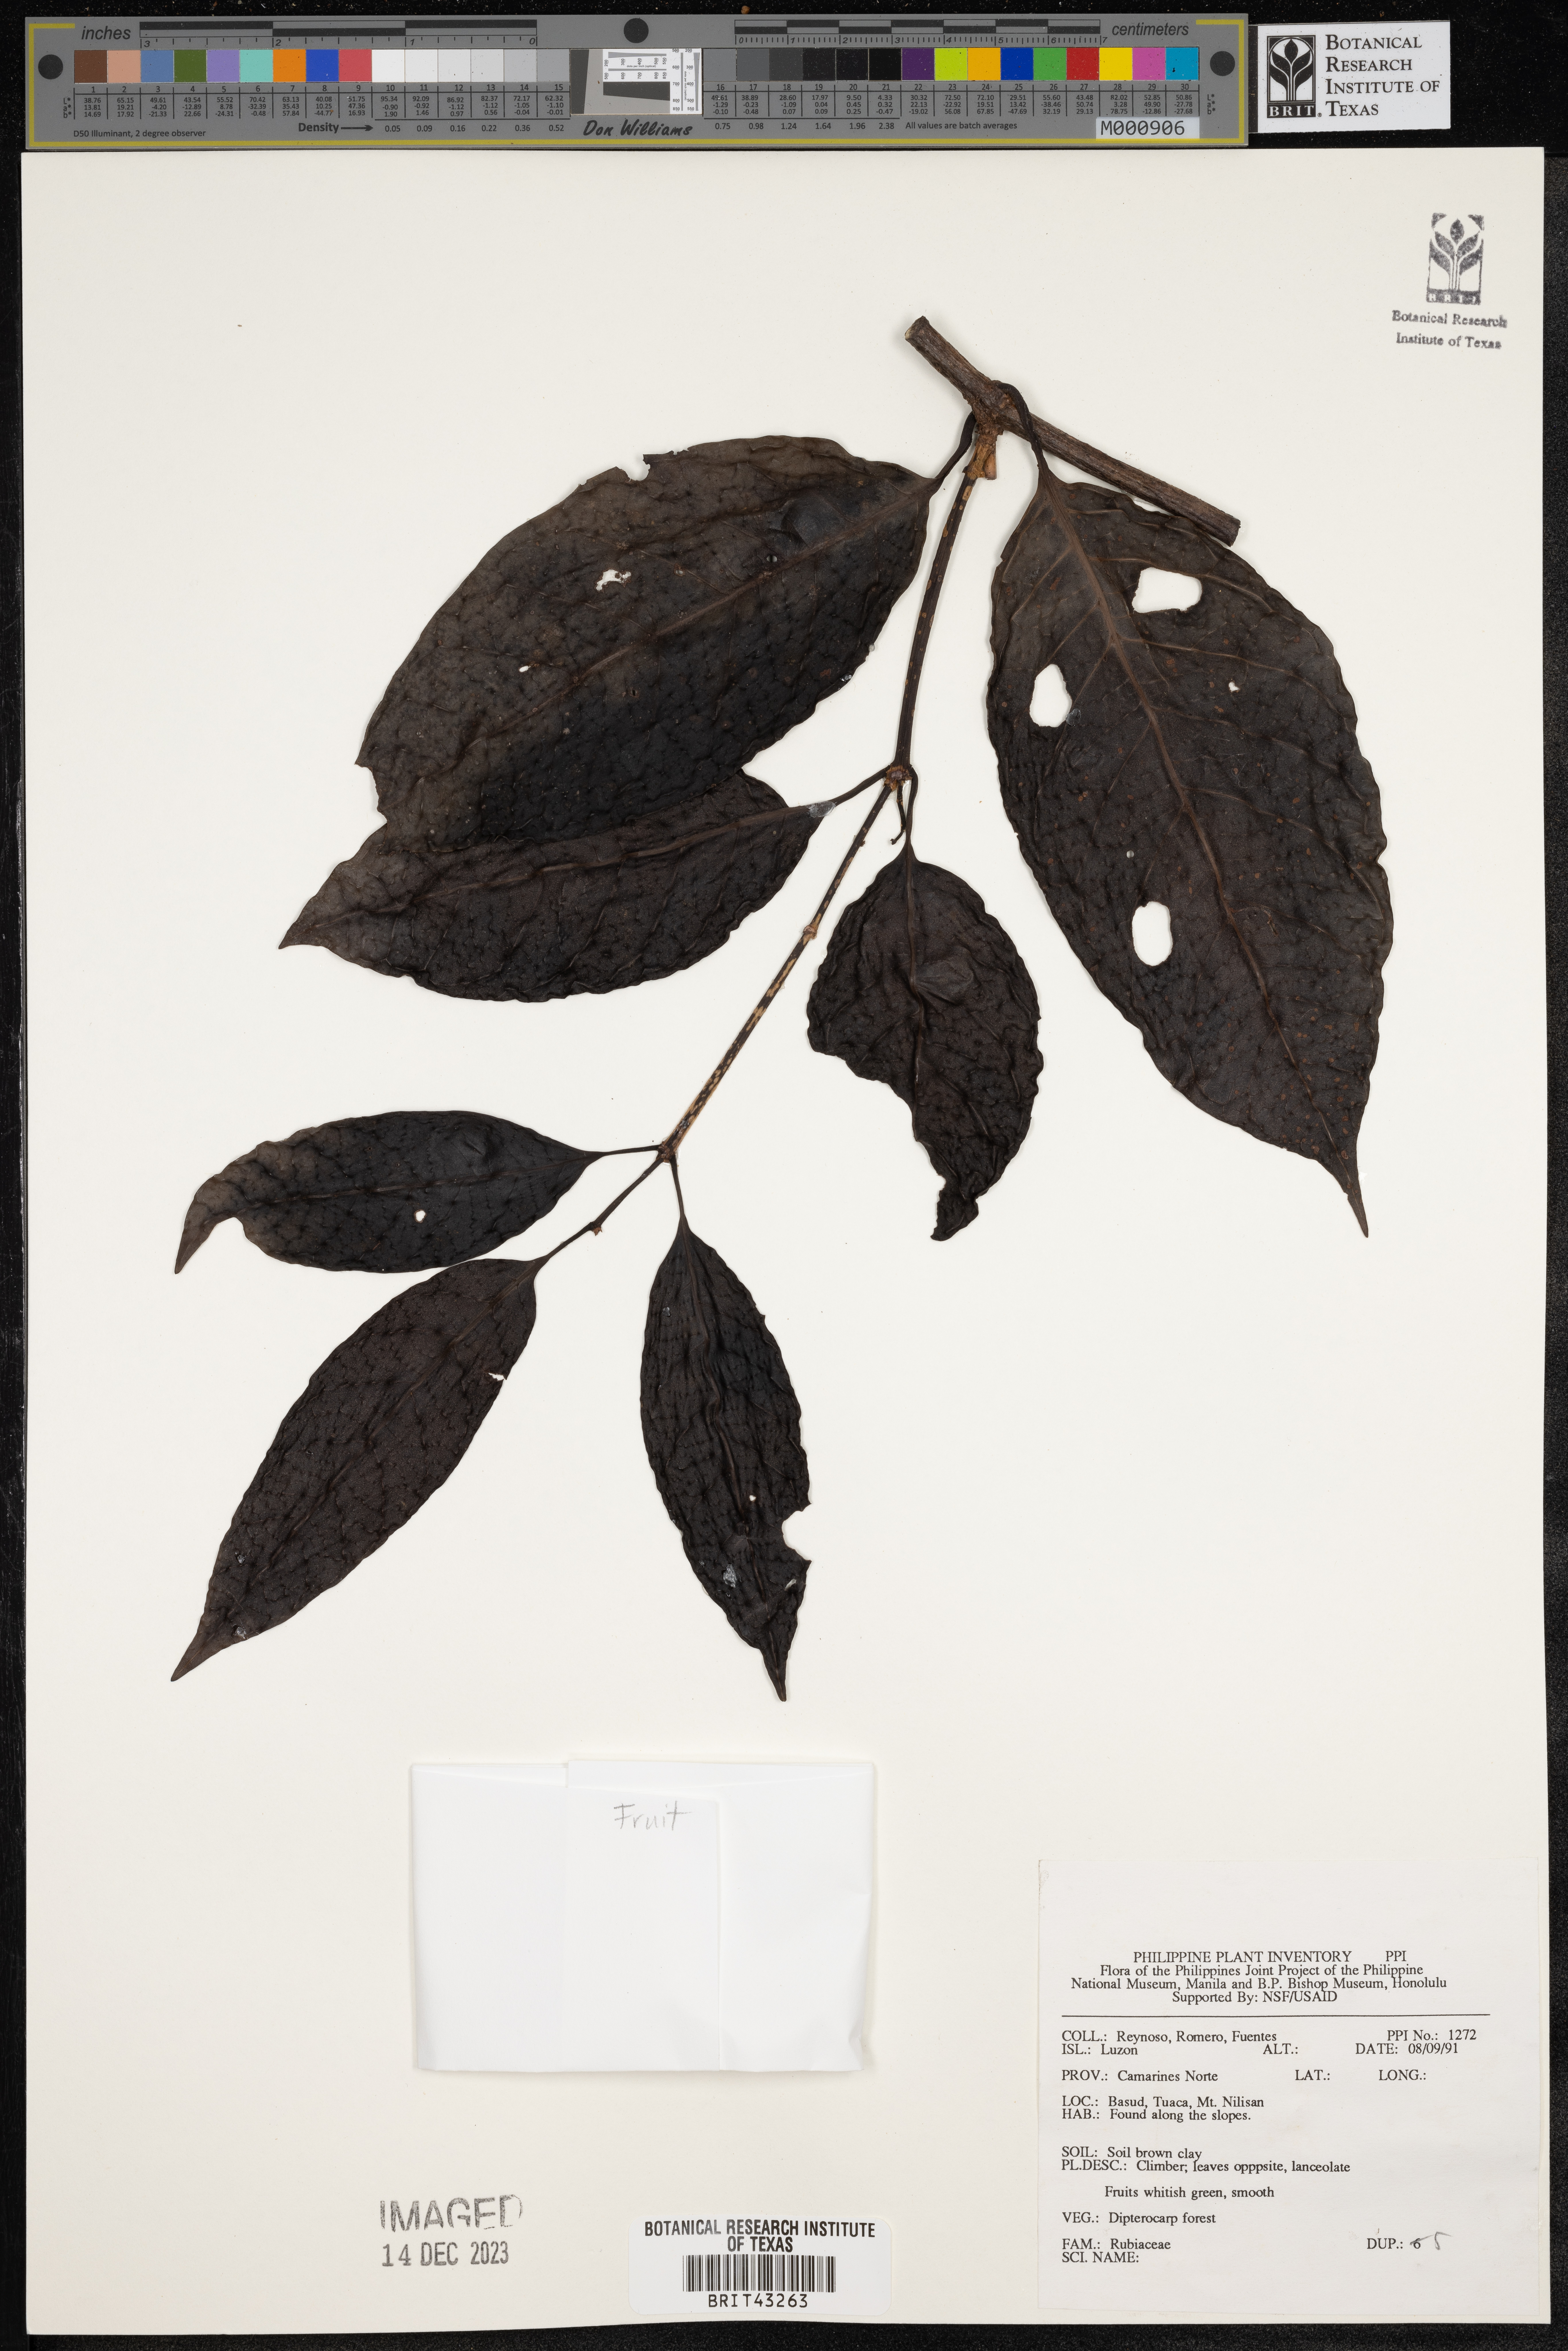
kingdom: Plantae
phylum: Tracheophyta
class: Magnoliopsida
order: Gentianales
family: Rubiaceae
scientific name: Rubiaceae
